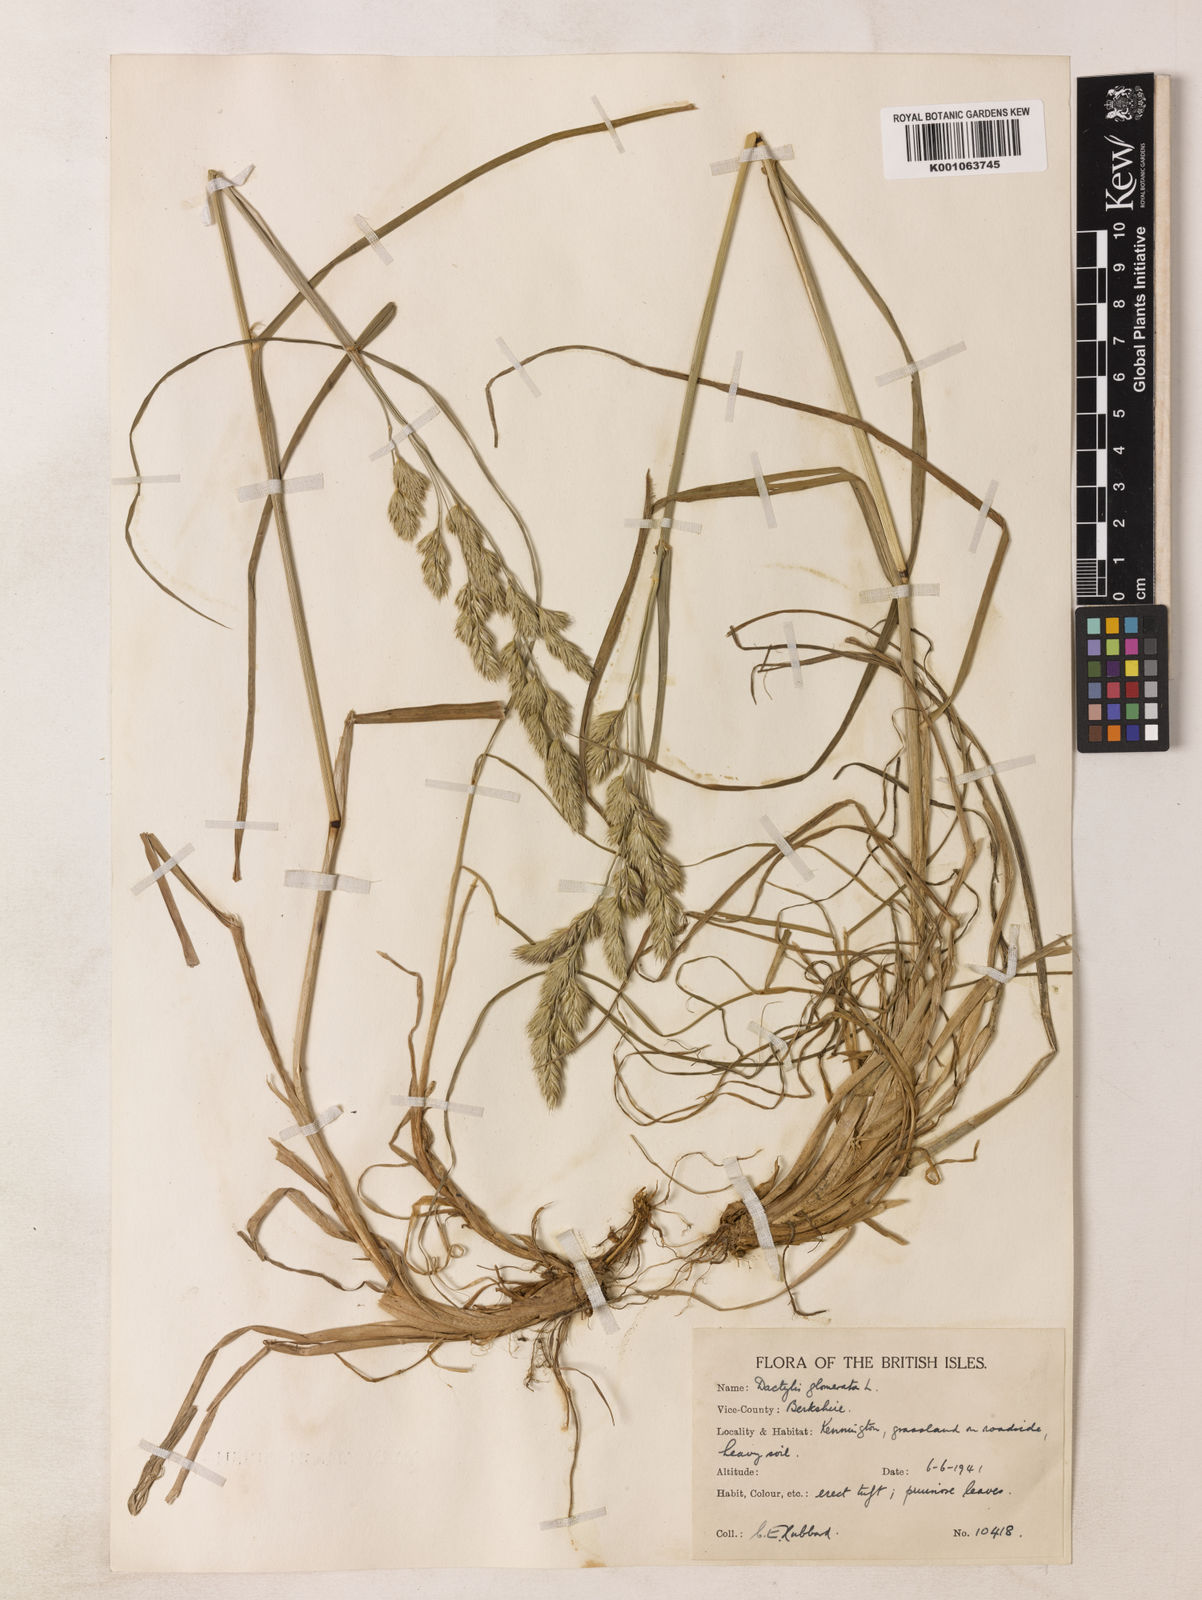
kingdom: Plantae
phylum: Tracheophyta
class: Liliopsida
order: Poales
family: Poaceae
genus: Dactylis
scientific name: Dactylis glomerata
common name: Orchardgrass
